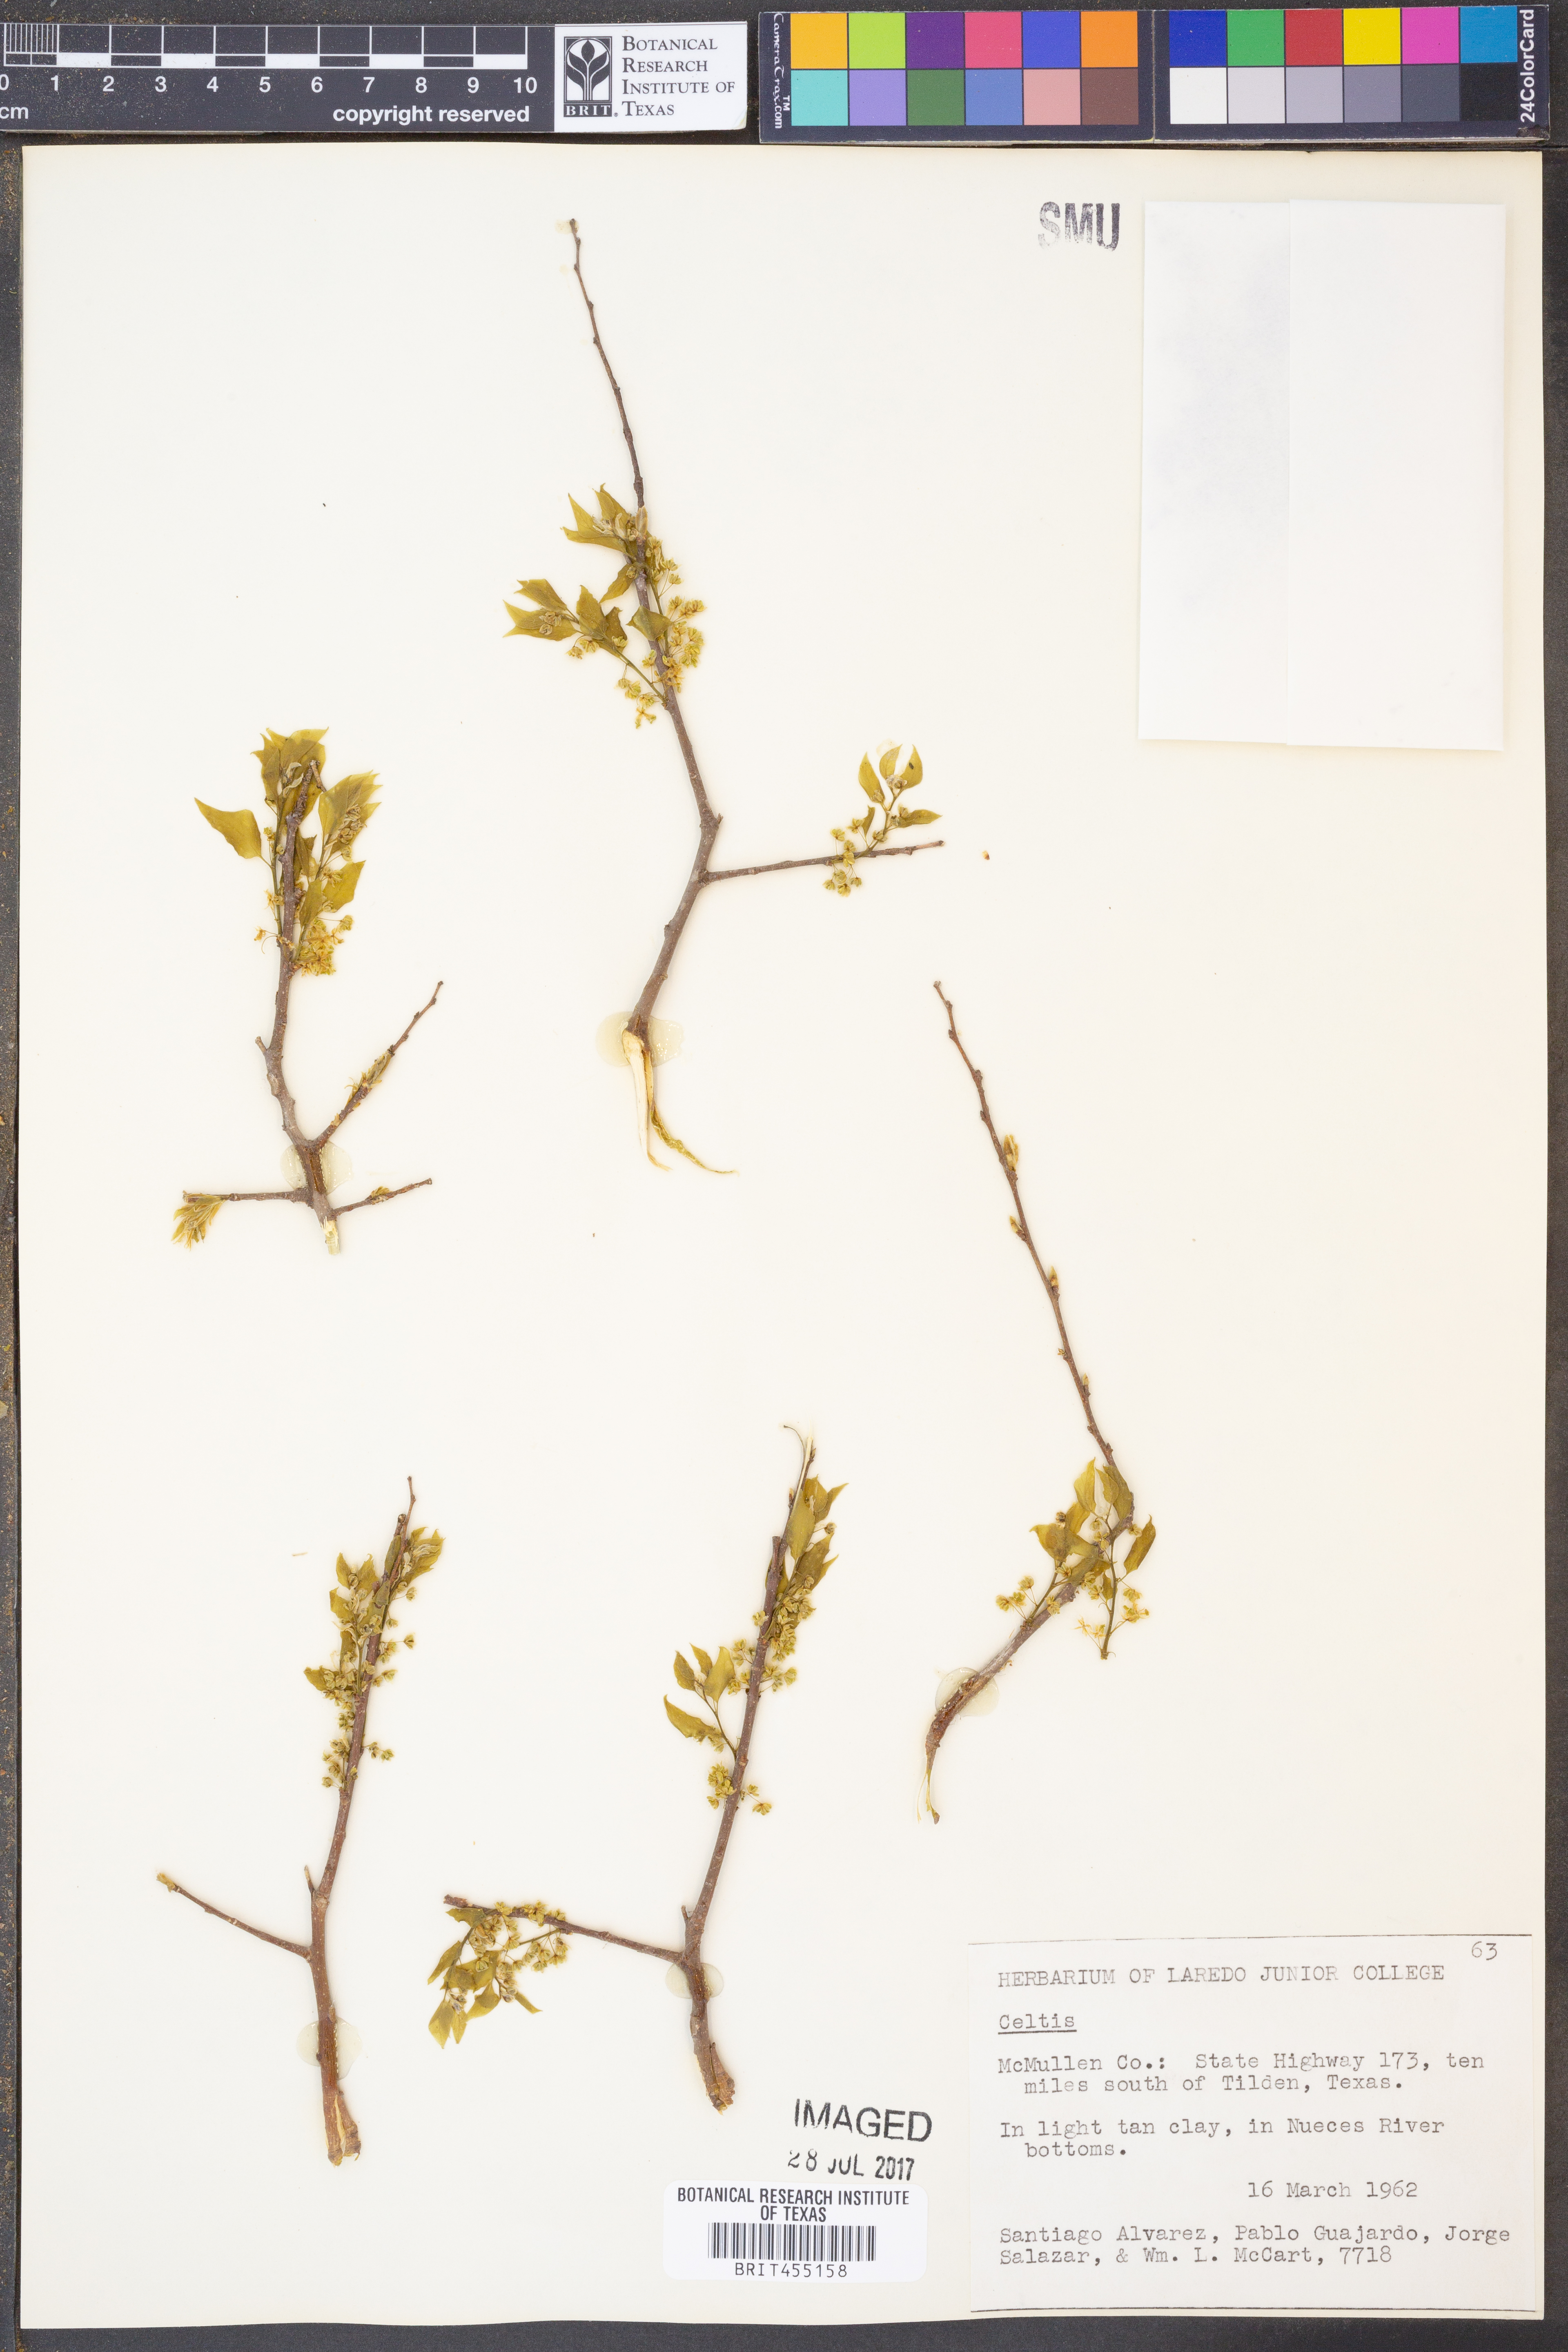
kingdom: Plantae
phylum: Tracheophyta
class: Magnoliopsida
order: Rosales
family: Cannabaceae
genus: Celtis
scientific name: Celtis
